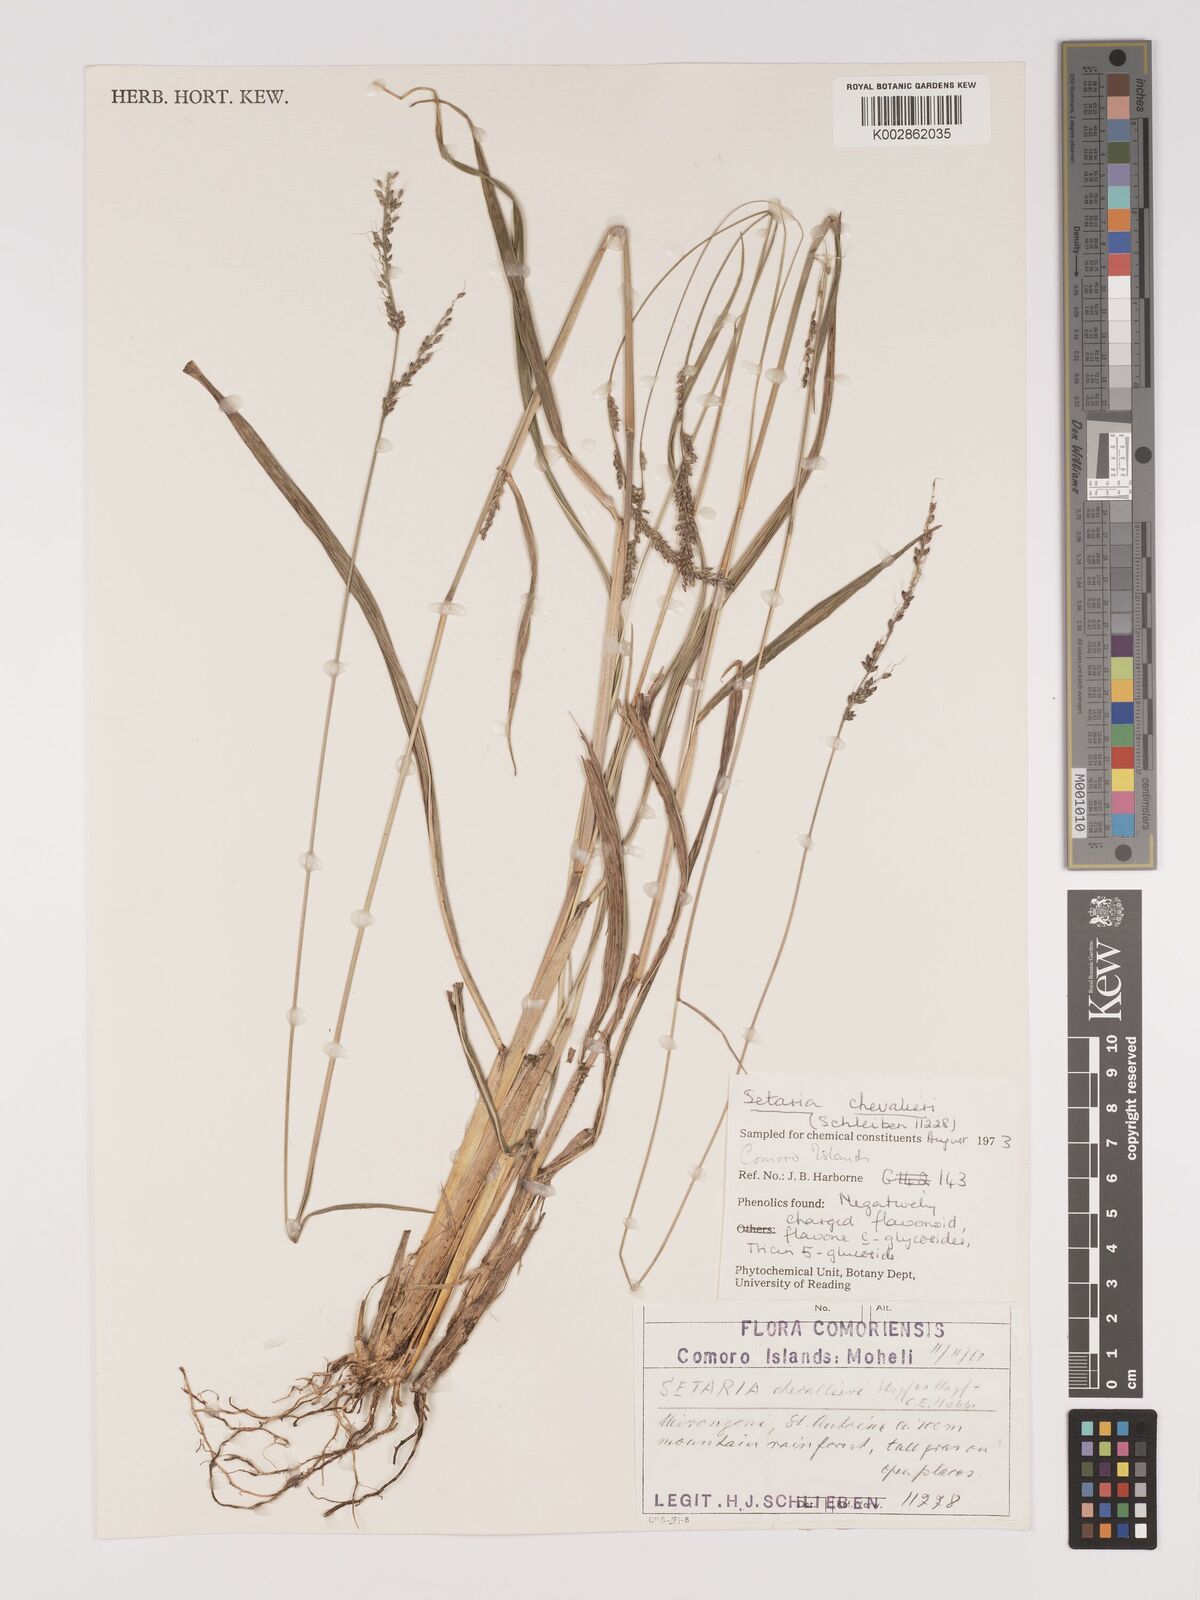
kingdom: Plantae
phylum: Tracheophyta
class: Liliopsida
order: Poales
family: Poaceae
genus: Setaria
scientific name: Setaria
